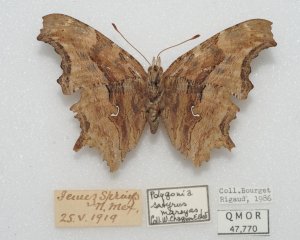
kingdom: Animalia
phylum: Arthropoda
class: Insecta
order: Lepidoptera
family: Nymphalidae
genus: Polygonia
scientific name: Polygonia satyrus
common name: Satyr Comma
